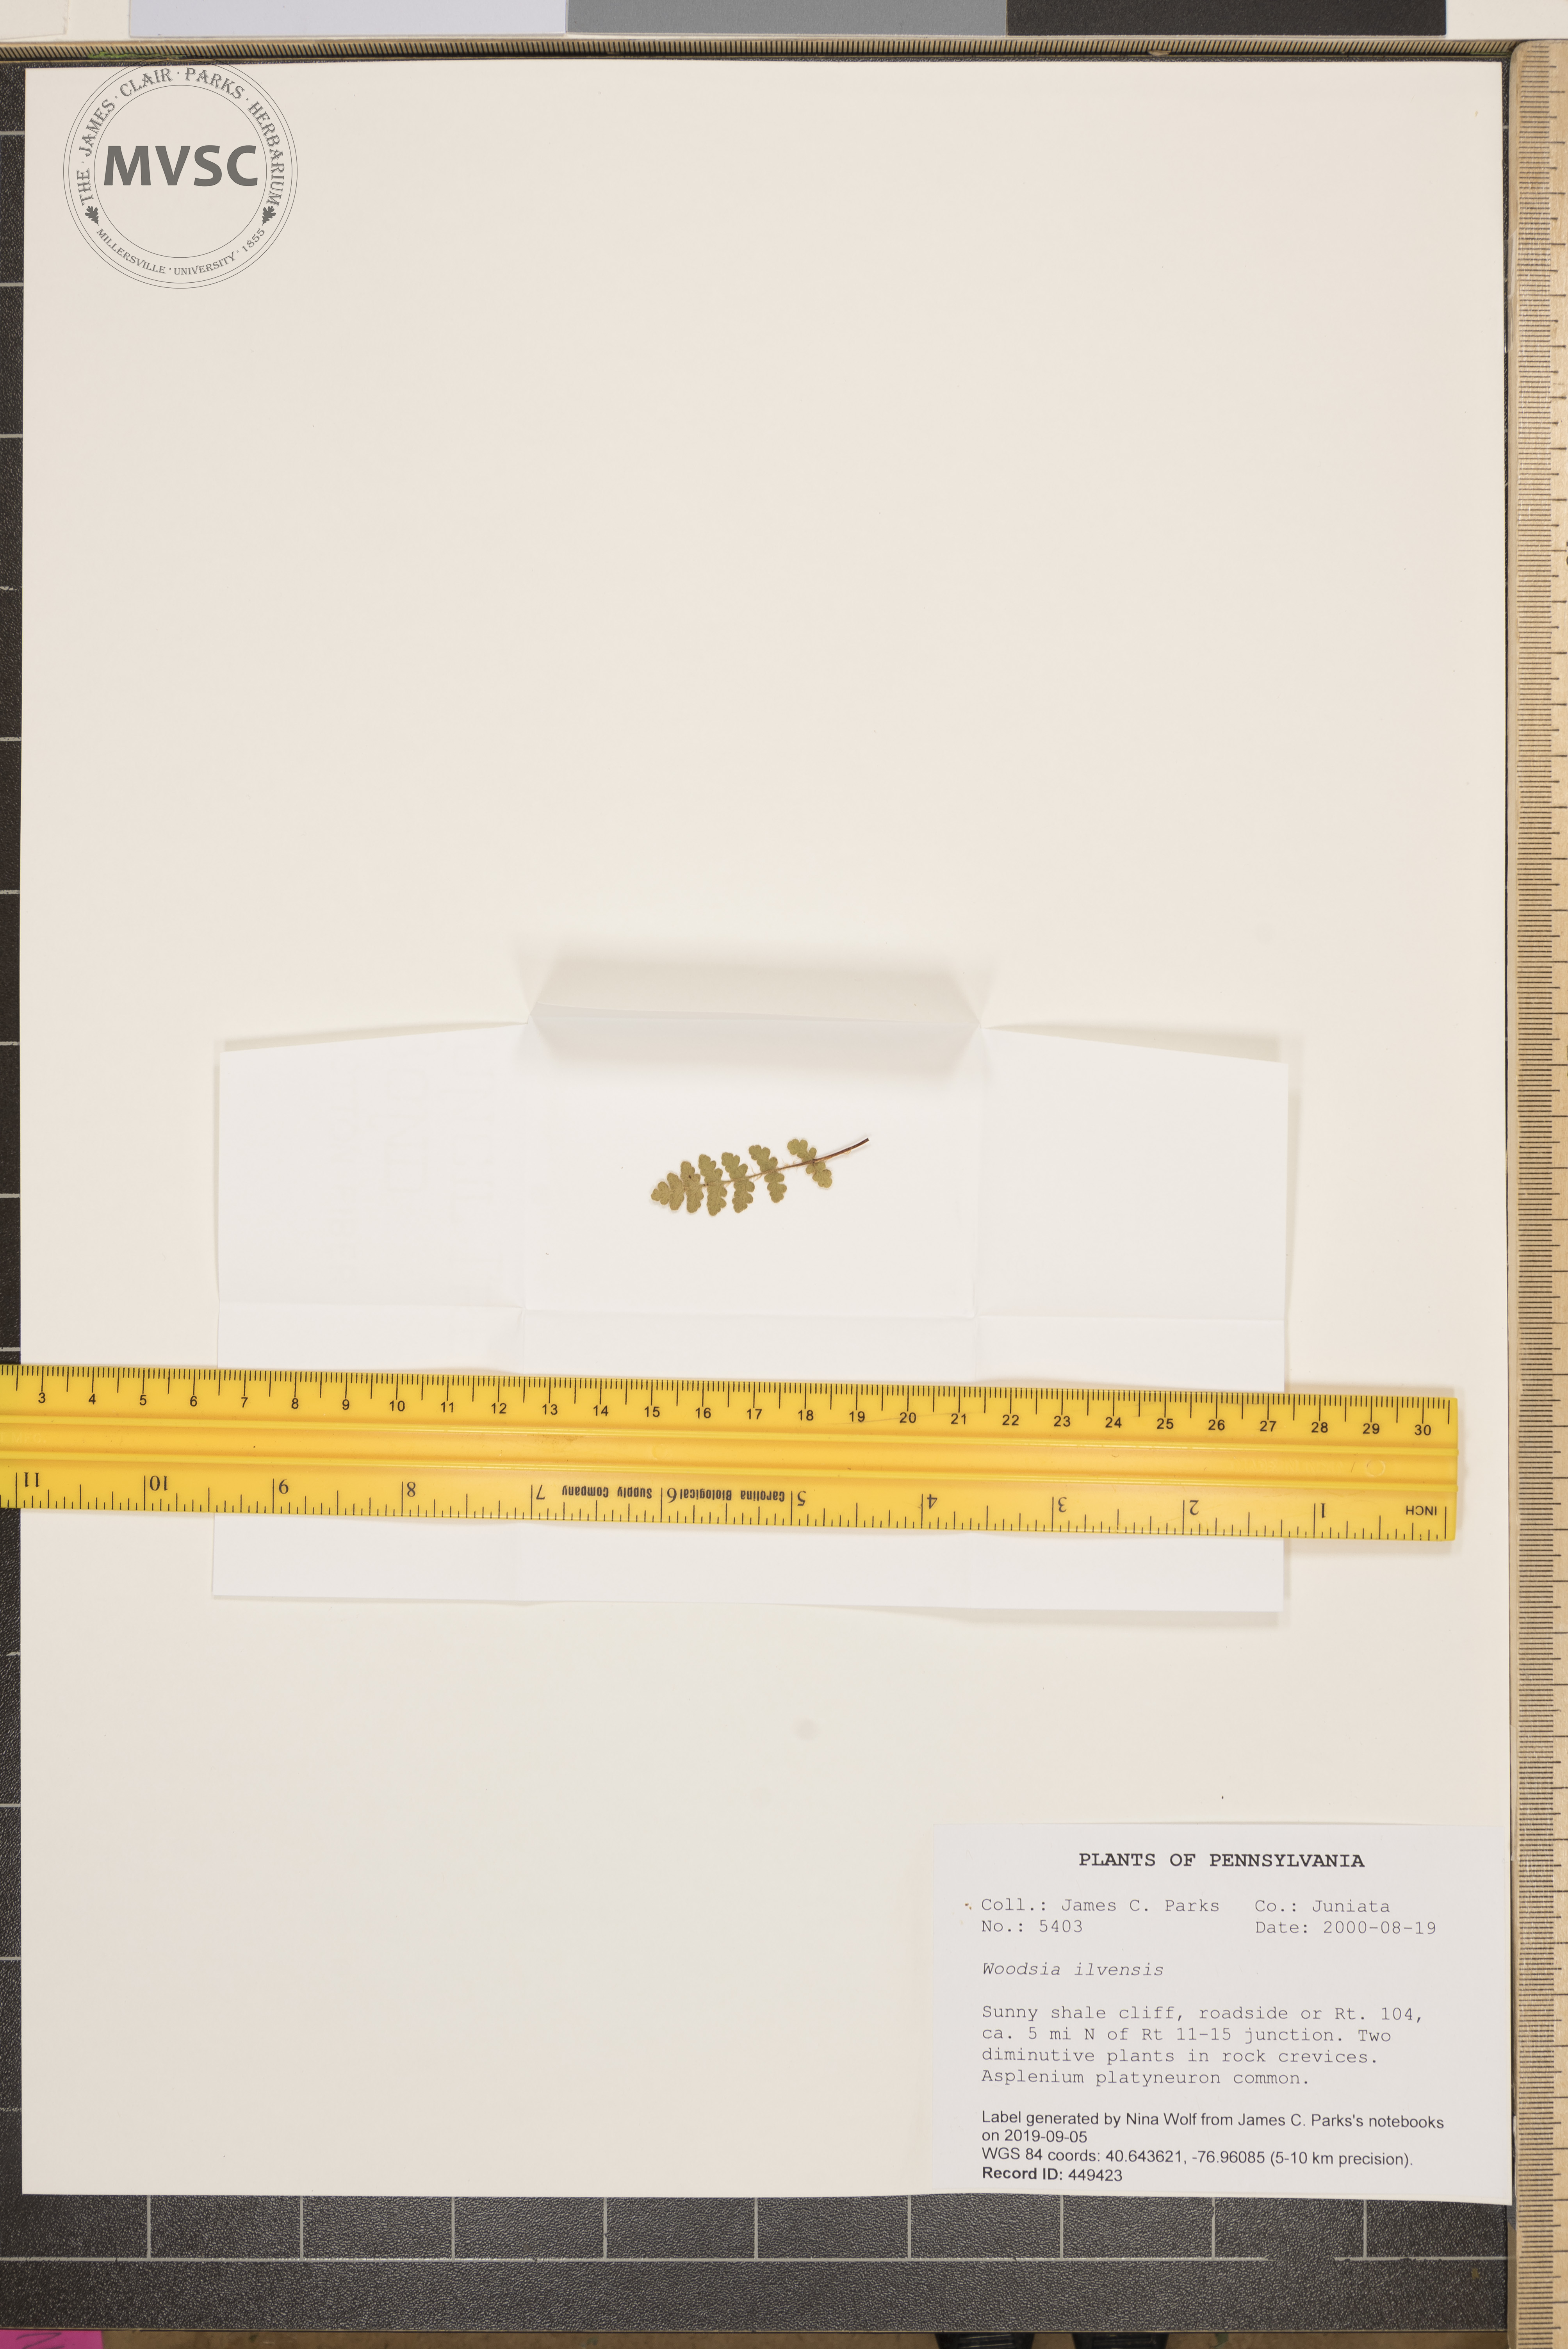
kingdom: Plantae
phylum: Tracheophyta
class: Polypodiopsida
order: Polypodiales
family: Woodsiaceae
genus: Woodsia
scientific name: Woodsia ilvensis
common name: Fragrant woodsia
